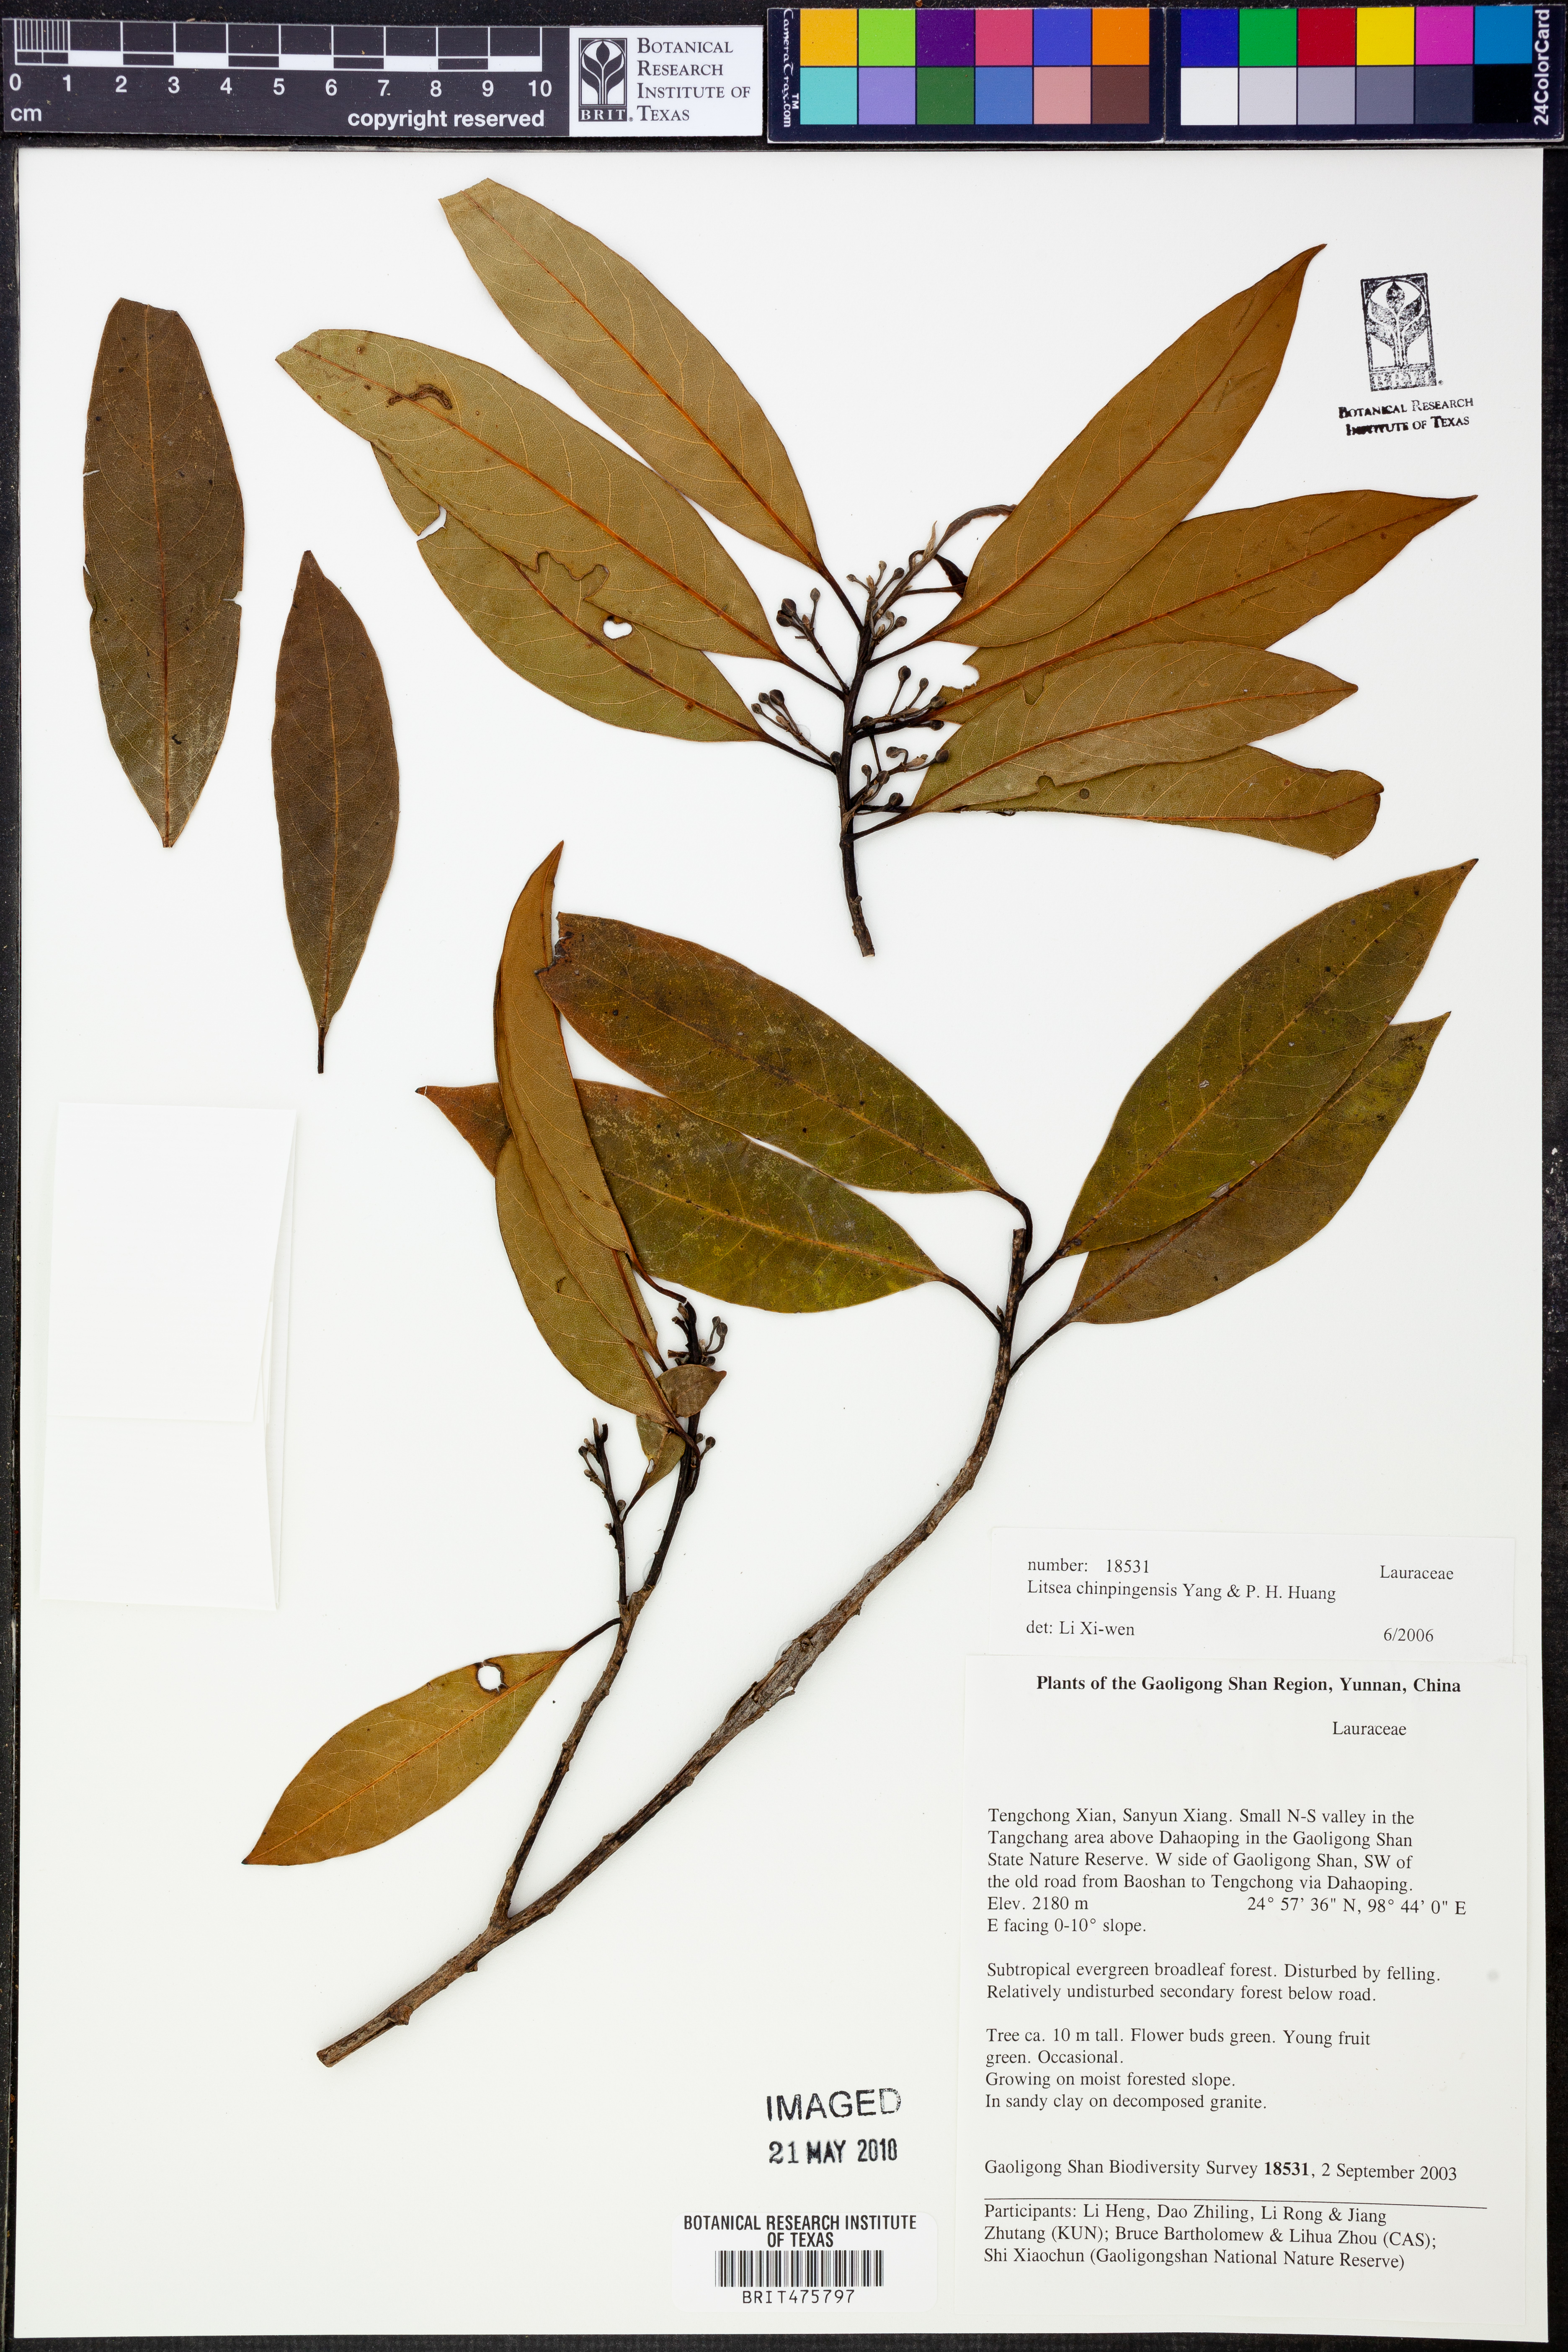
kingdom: Plantae
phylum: Tracheophyta
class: Magnoliopsida
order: Laurales
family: Lauraceae
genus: Litsea
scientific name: Litsea chinpingensis
